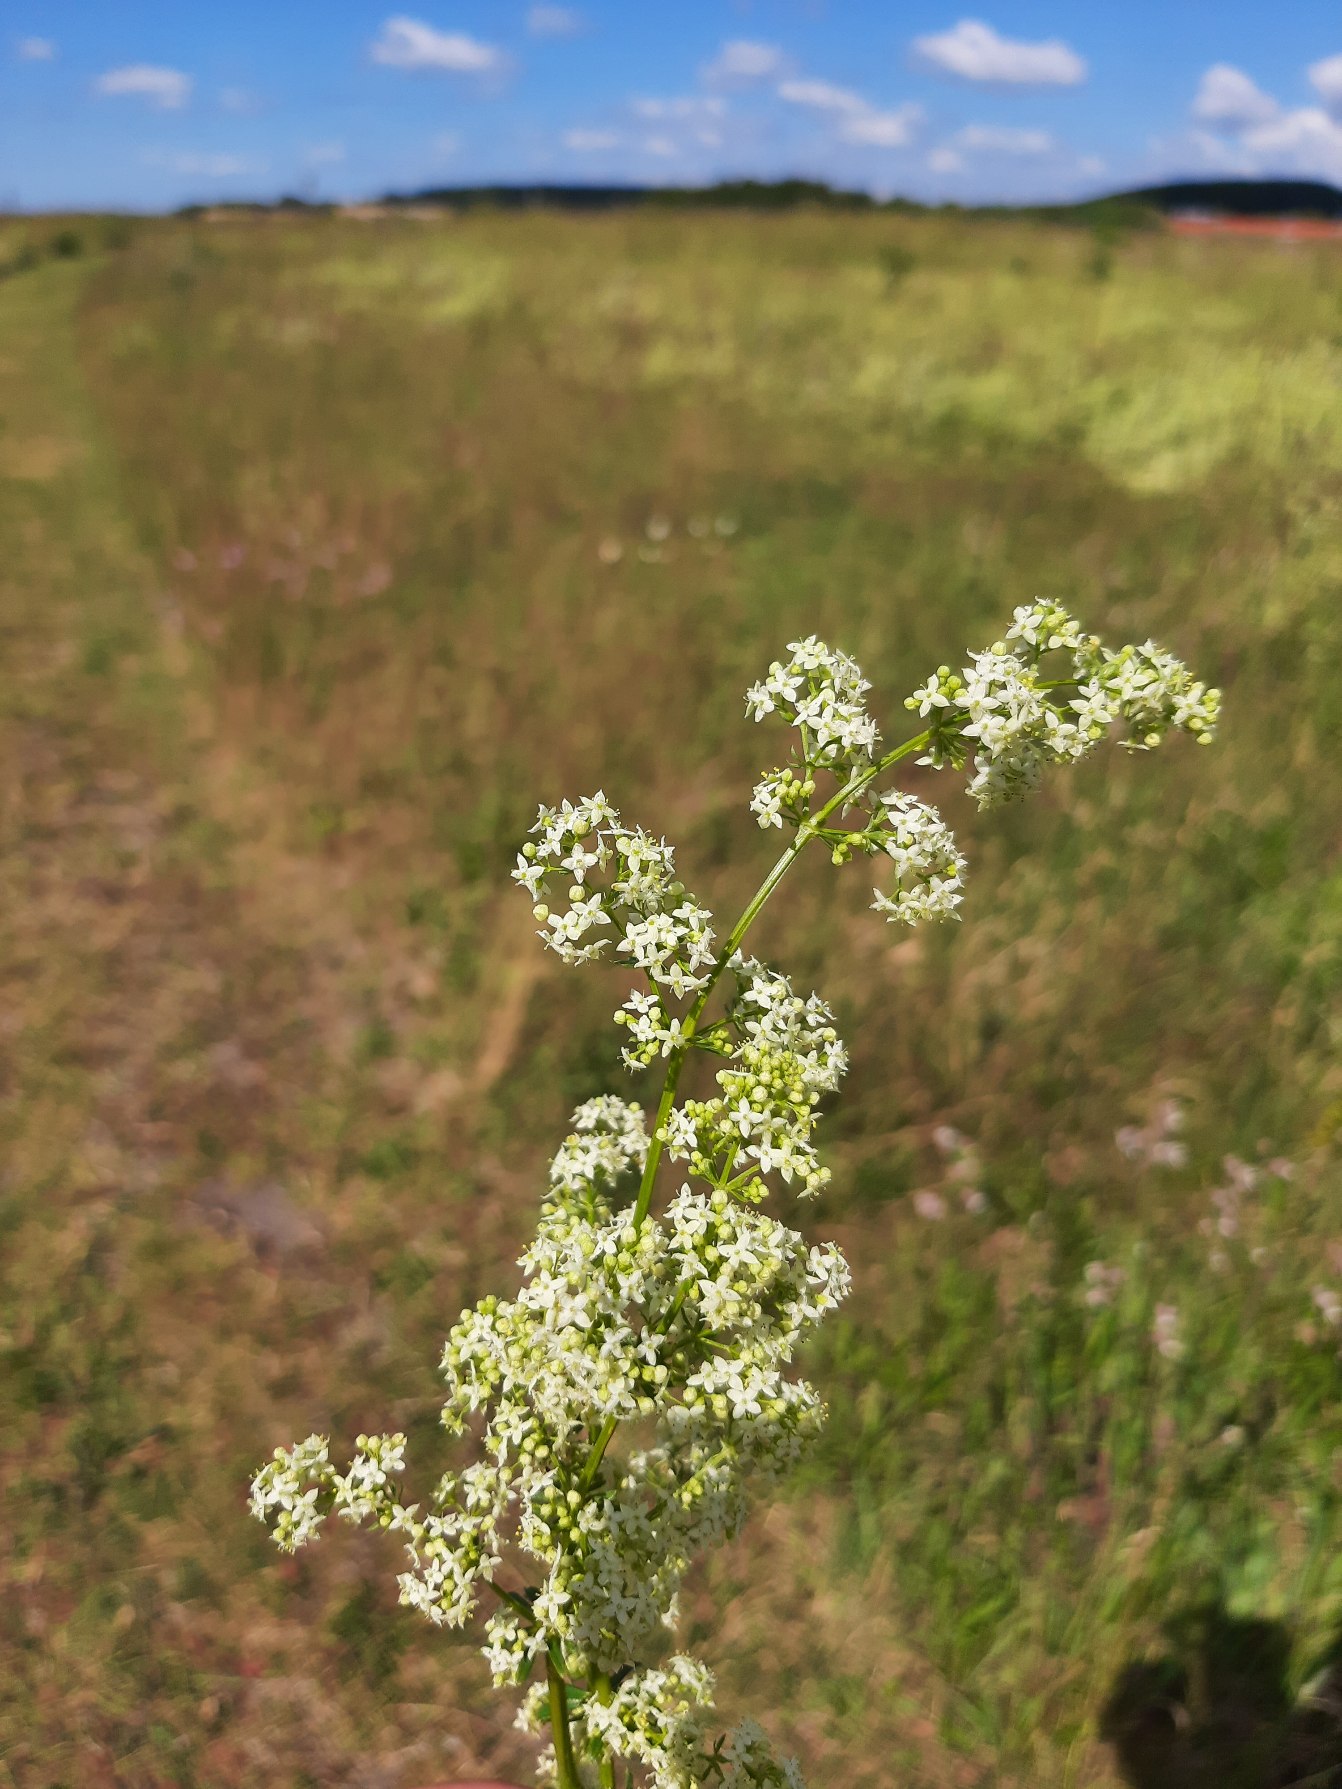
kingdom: Plantae
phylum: Tracheophyta
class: Magnoliopsida
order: Gentianales
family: Rubiaceae
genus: Galium
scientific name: Galium mollugo
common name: Hvid snerre
